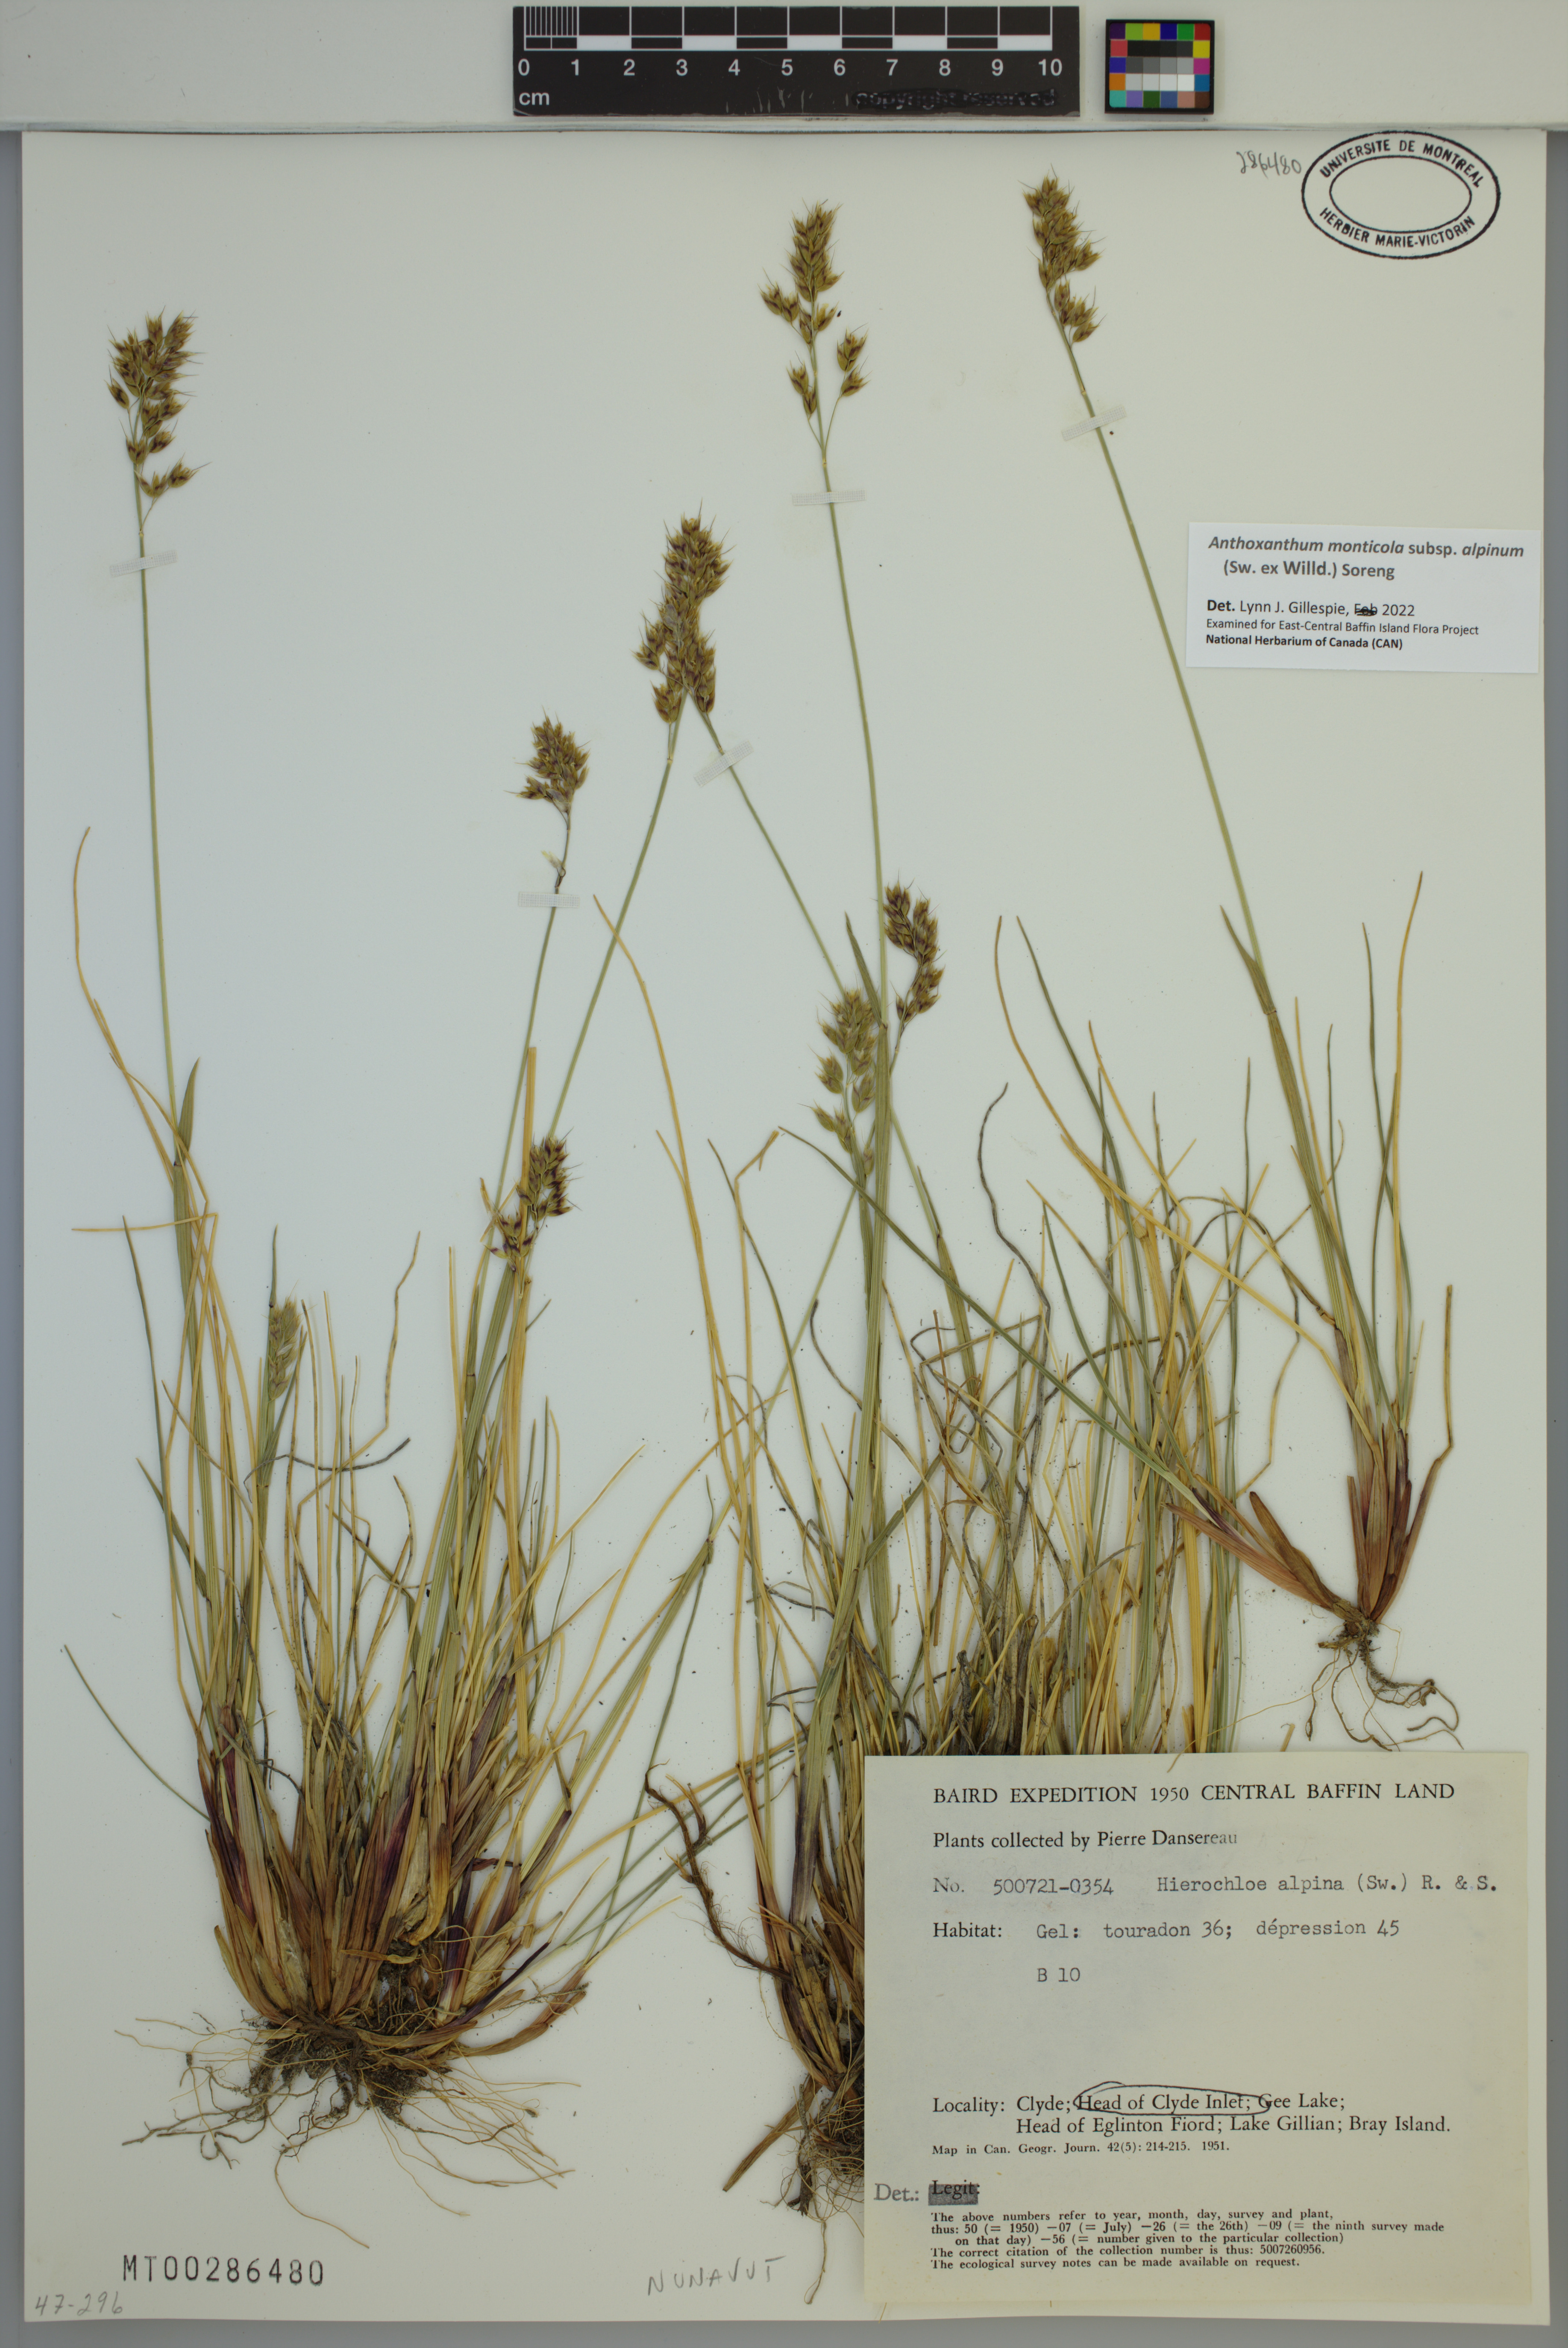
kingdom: Plantae
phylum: Tracheophyta
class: Liliopsida
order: Poales
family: Poaceae
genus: Anthoxanthum
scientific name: Anthoxanthum monticola
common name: Alpine sweetgrass
